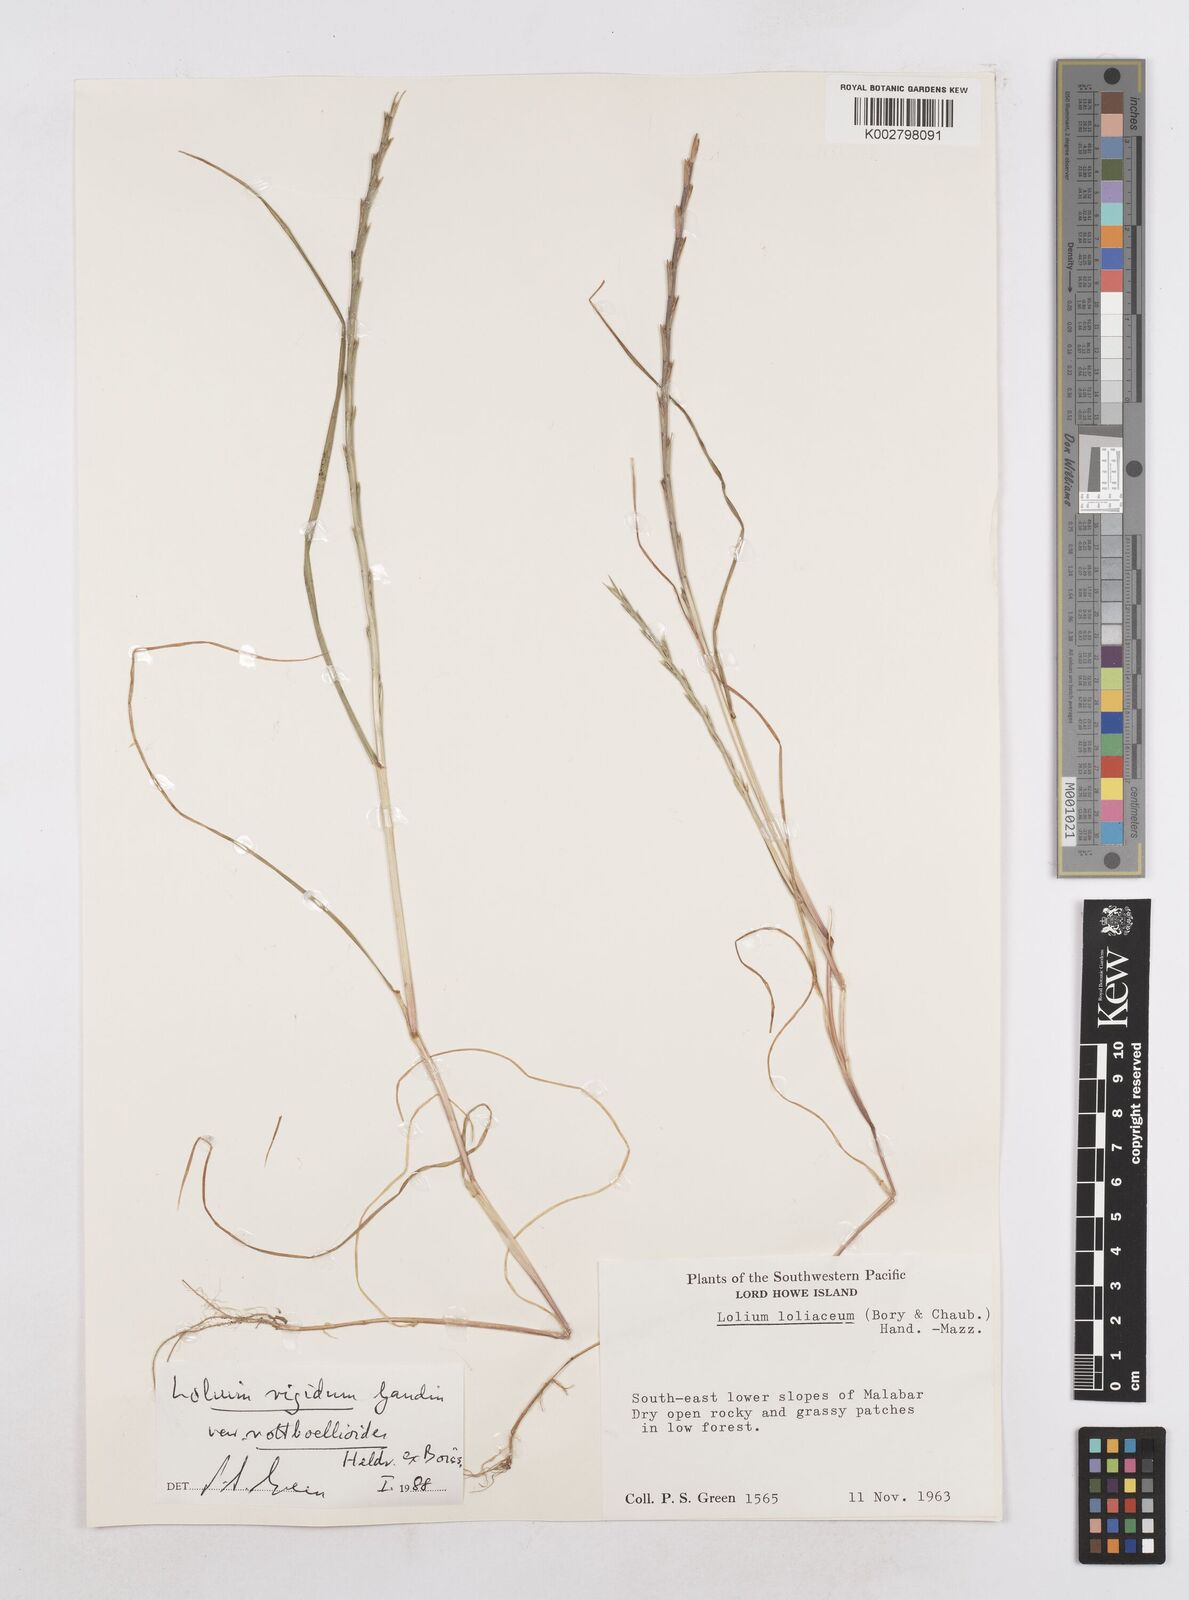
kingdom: Plantae
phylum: Tracheophyta
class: Liliopsida
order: Poales
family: Poaceae
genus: Lolium
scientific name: Lolium rigidum
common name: Wimmera ryegrass
